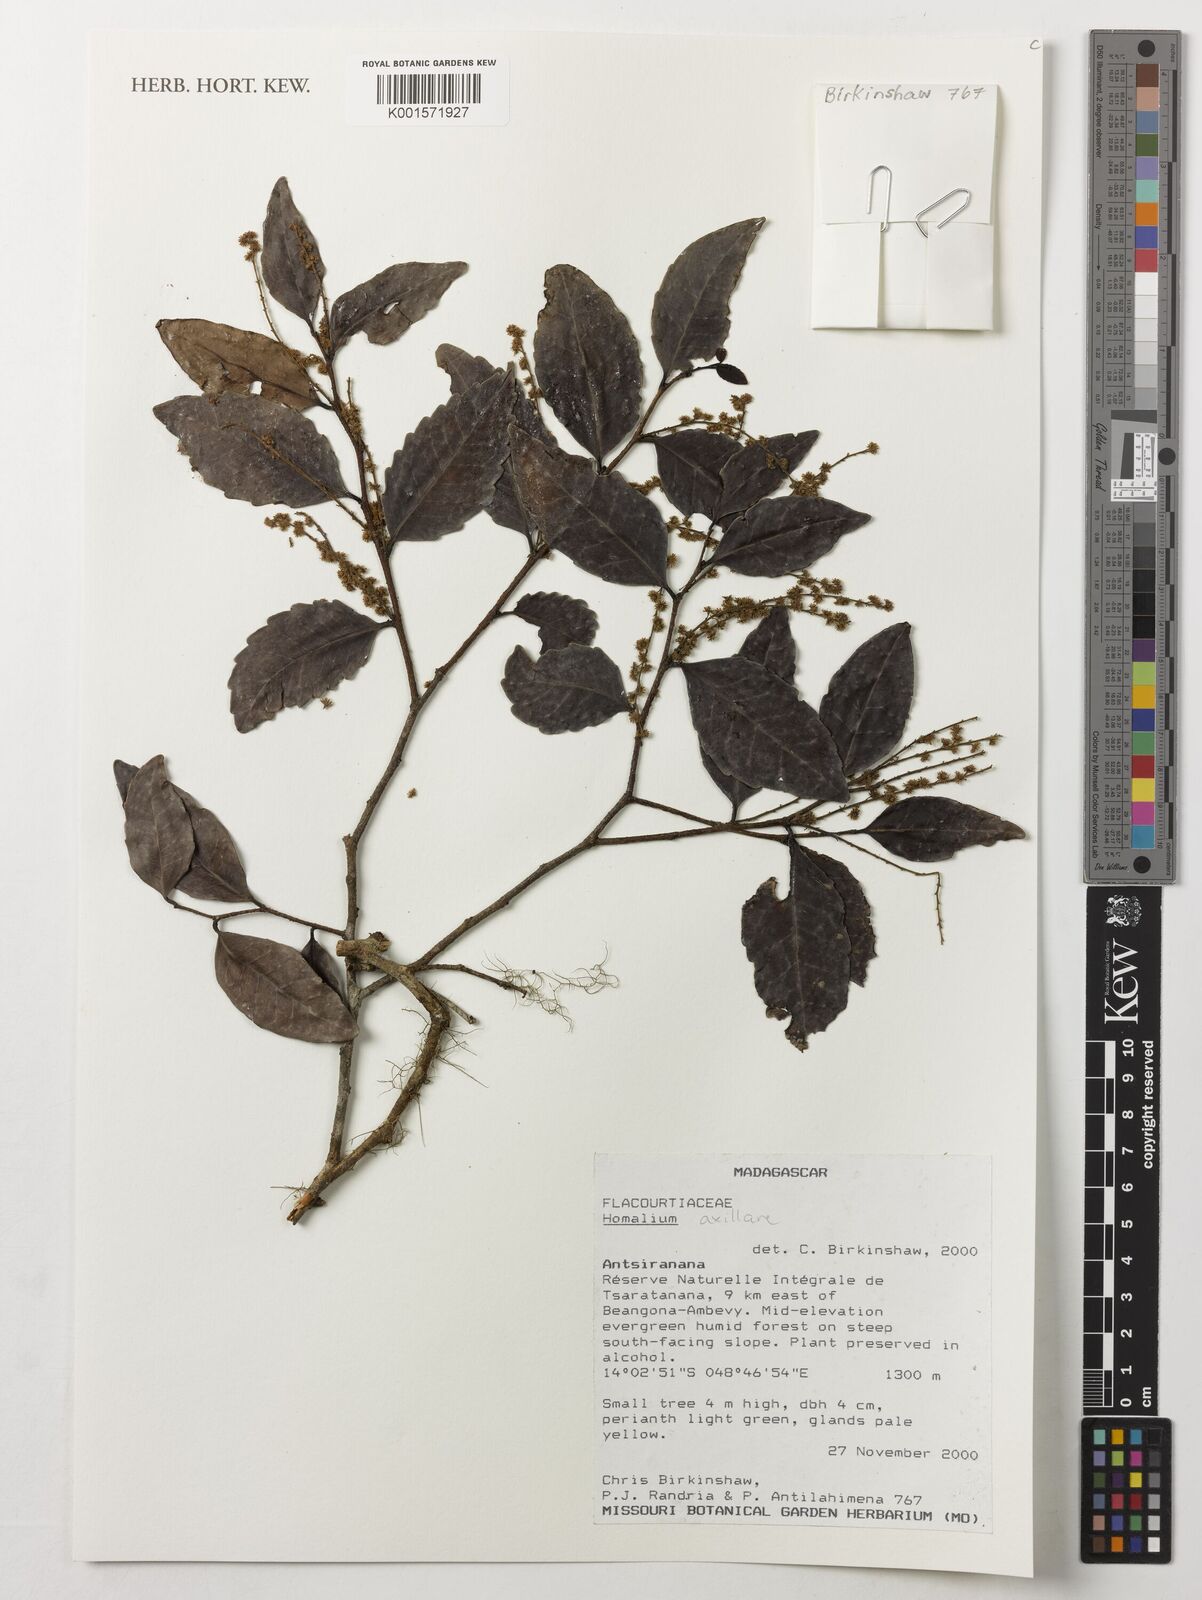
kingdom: Plantae
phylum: Tracheophyta
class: Magnoliopsida
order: Malpighiales
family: Salicaceae
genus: Homalium
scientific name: Homalium axillare
